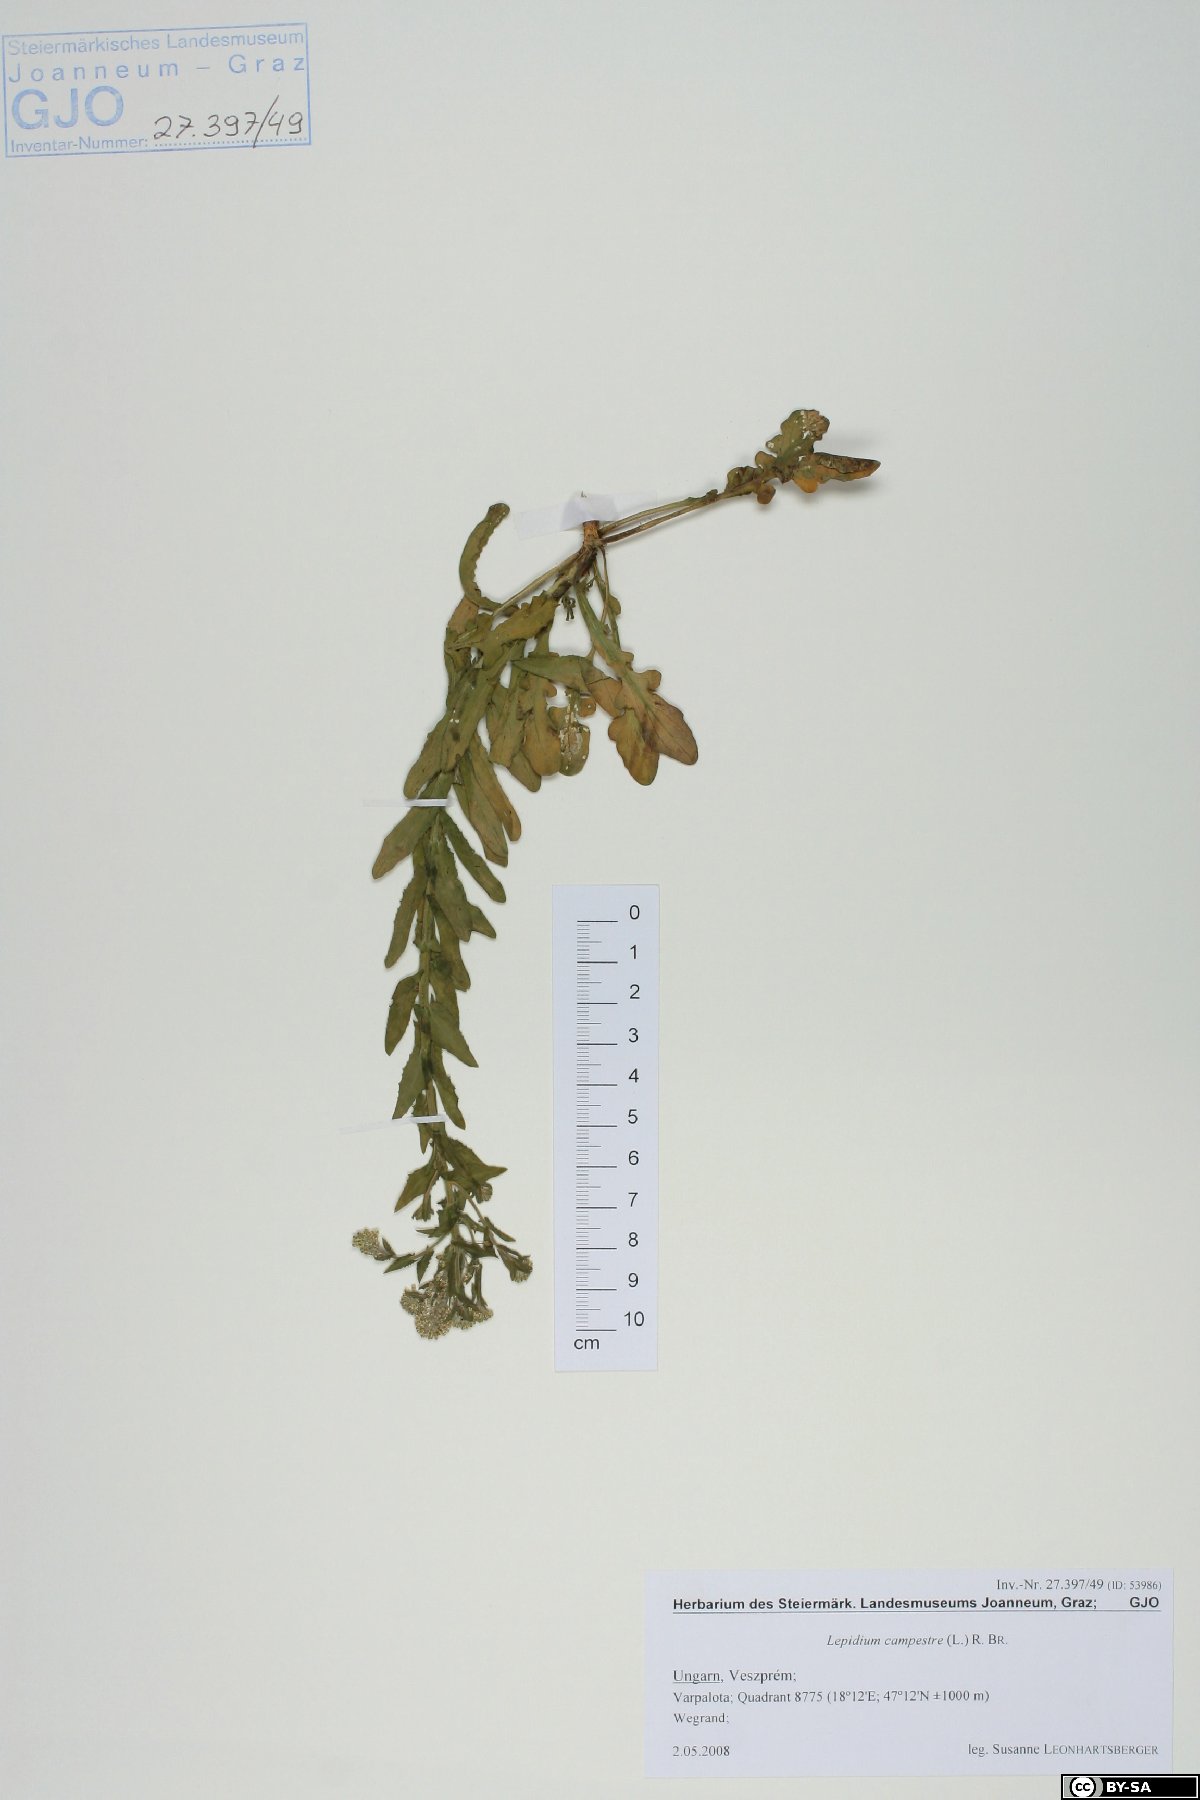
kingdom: Plantae
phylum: Tracheophyta
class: Magnoliopsida
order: Brassicales
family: Brassicaceae
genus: Lepidium
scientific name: Lepidium campestre
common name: Field pepperwort
